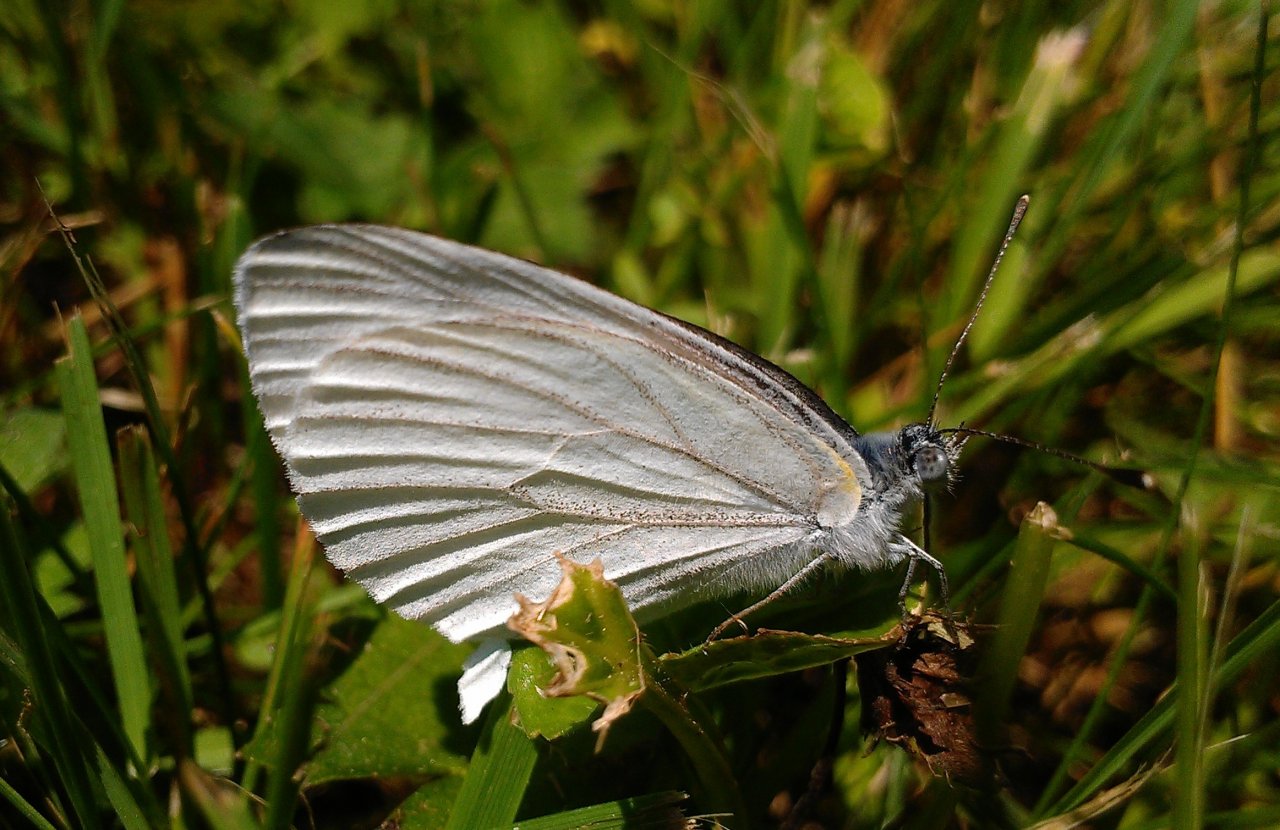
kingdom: Animalia
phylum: Arthropoda
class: Insecta
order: Lepidoptera
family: Pieridae
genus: Pieris
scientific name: Pieris oleracea
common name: Mustard White
